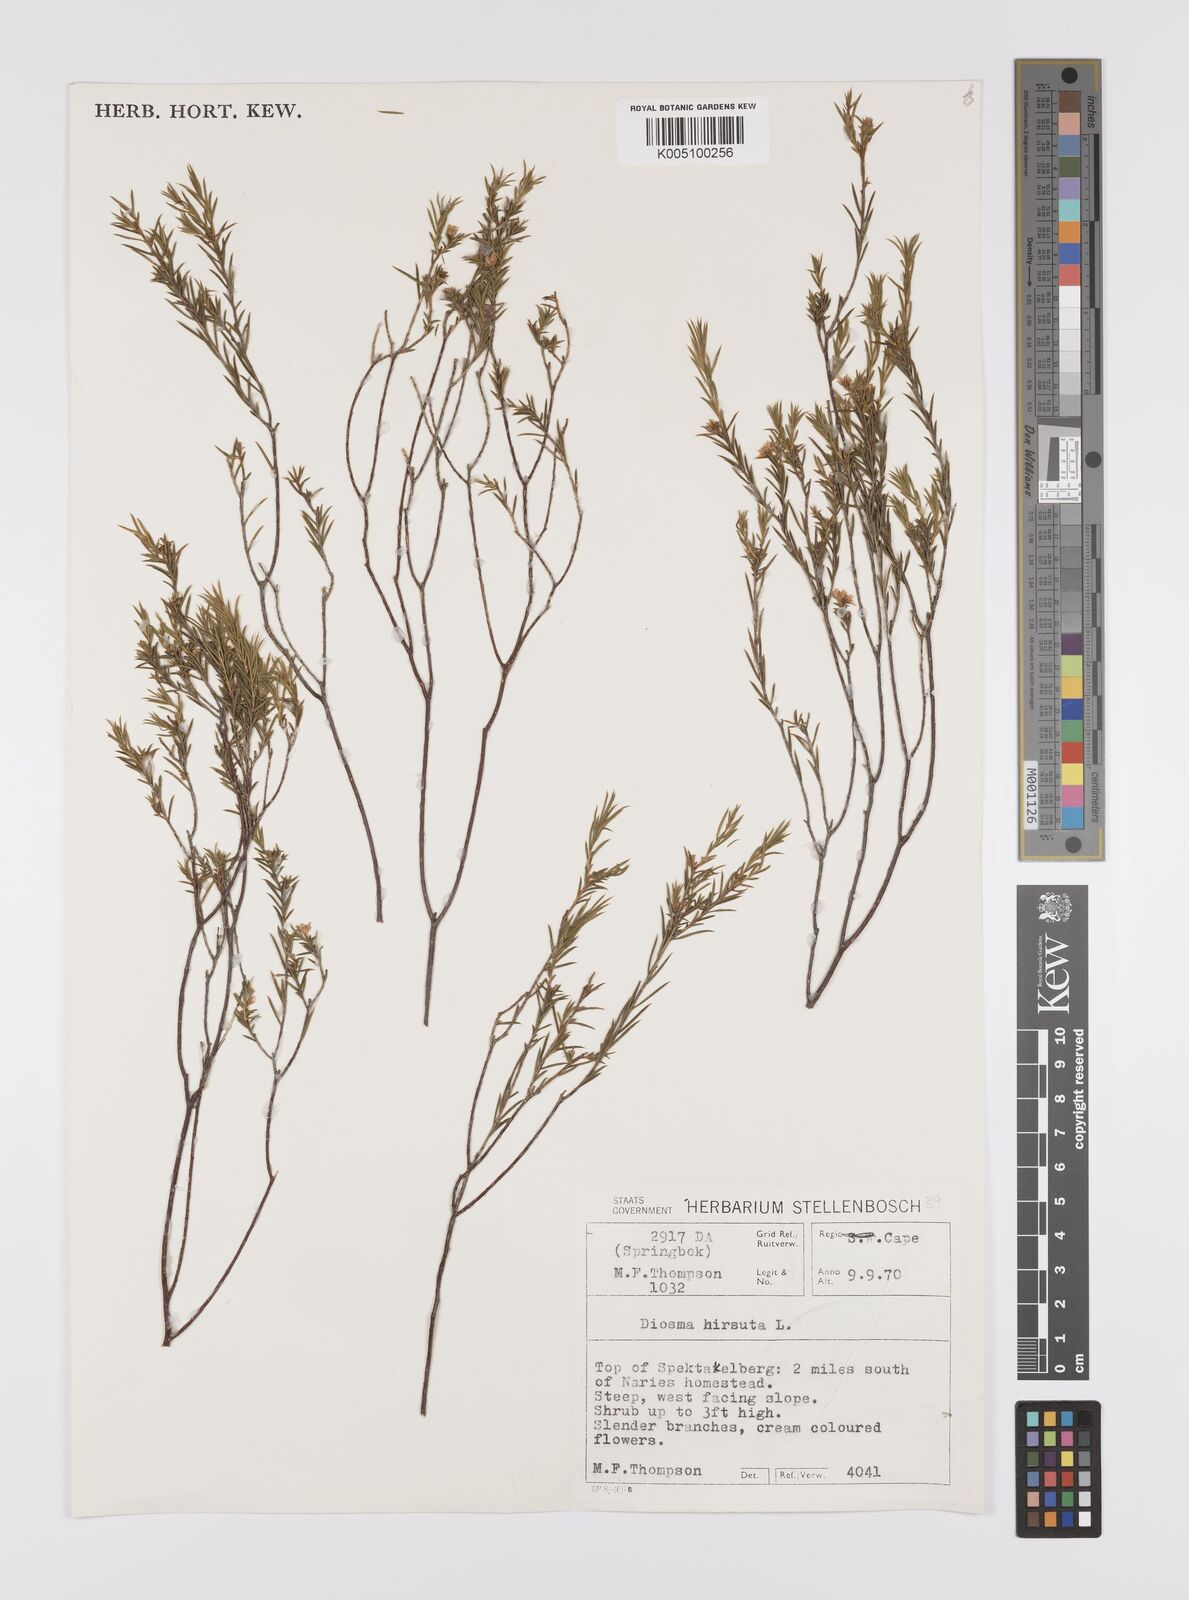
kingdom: Plantae
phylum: Tracheophyta
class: Magnoliopsida
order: Sapindales
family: Rutaceae
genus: Diosma
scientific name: Diosma hirsuta
